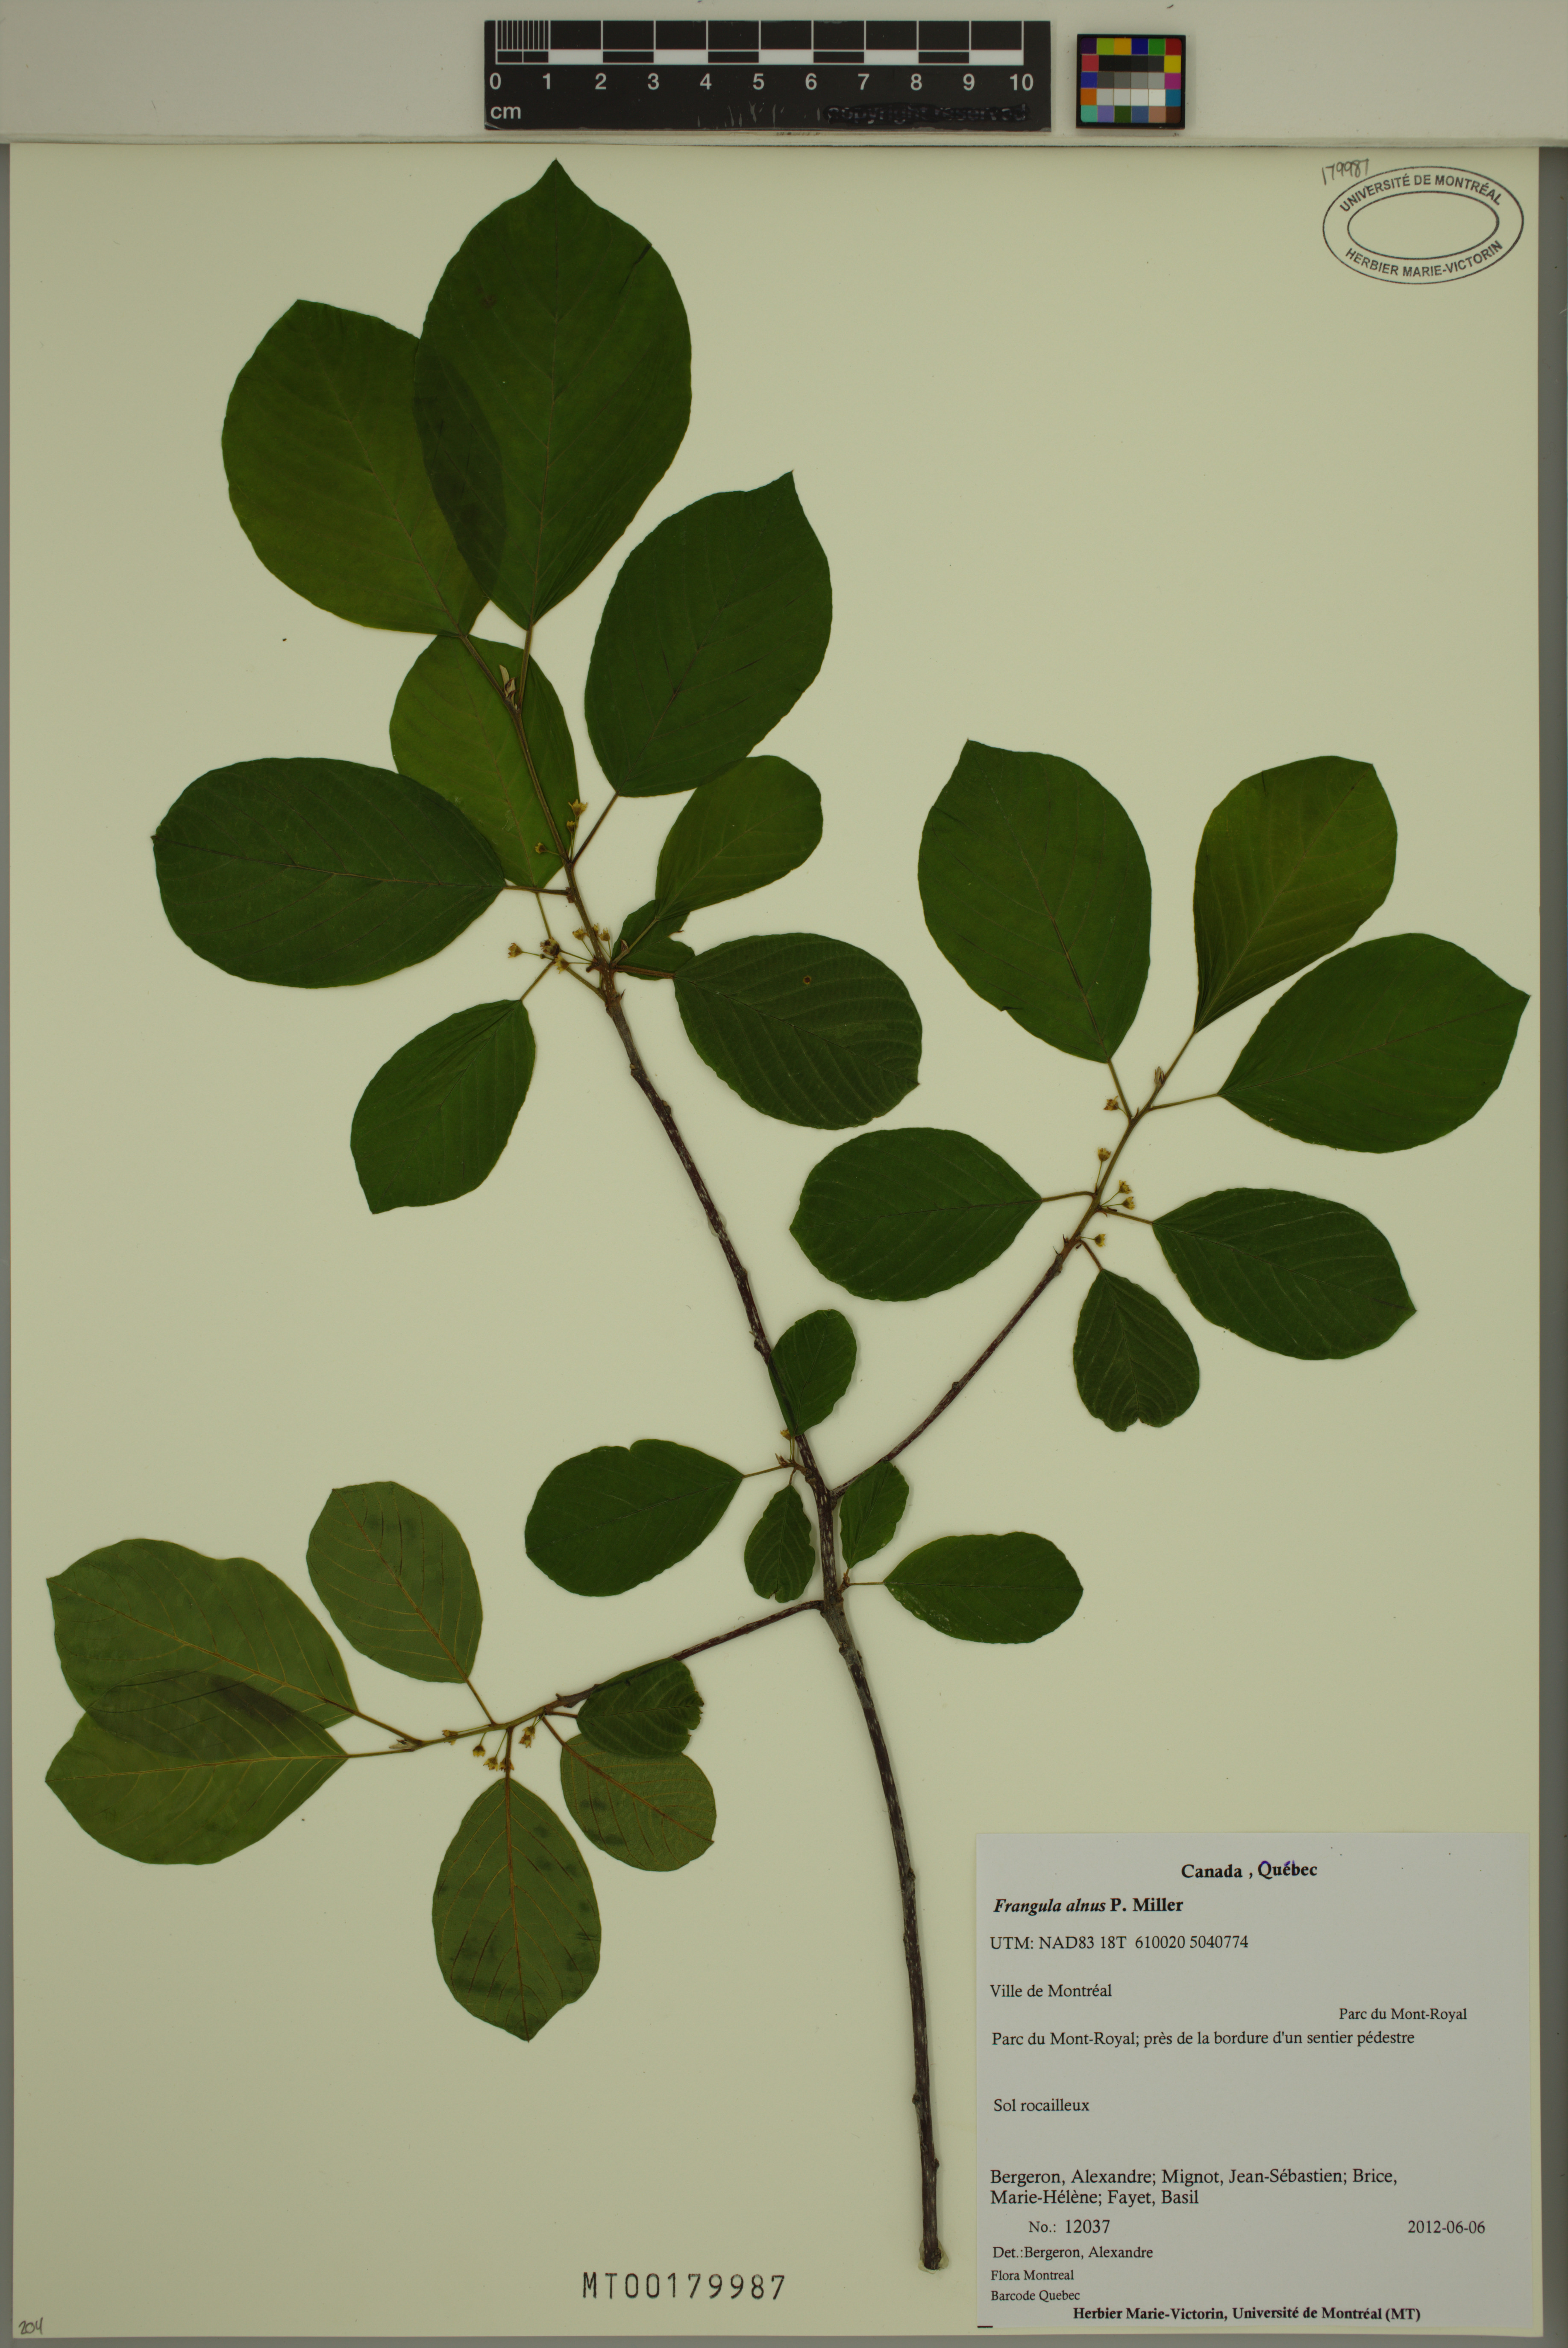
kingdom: Plantae
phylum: Tracheophyta
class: Magnoliopsida
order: Rosales
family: Rhamnaceae
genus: Frangula
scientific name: Frangula alnus
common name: Alder buckthorn
